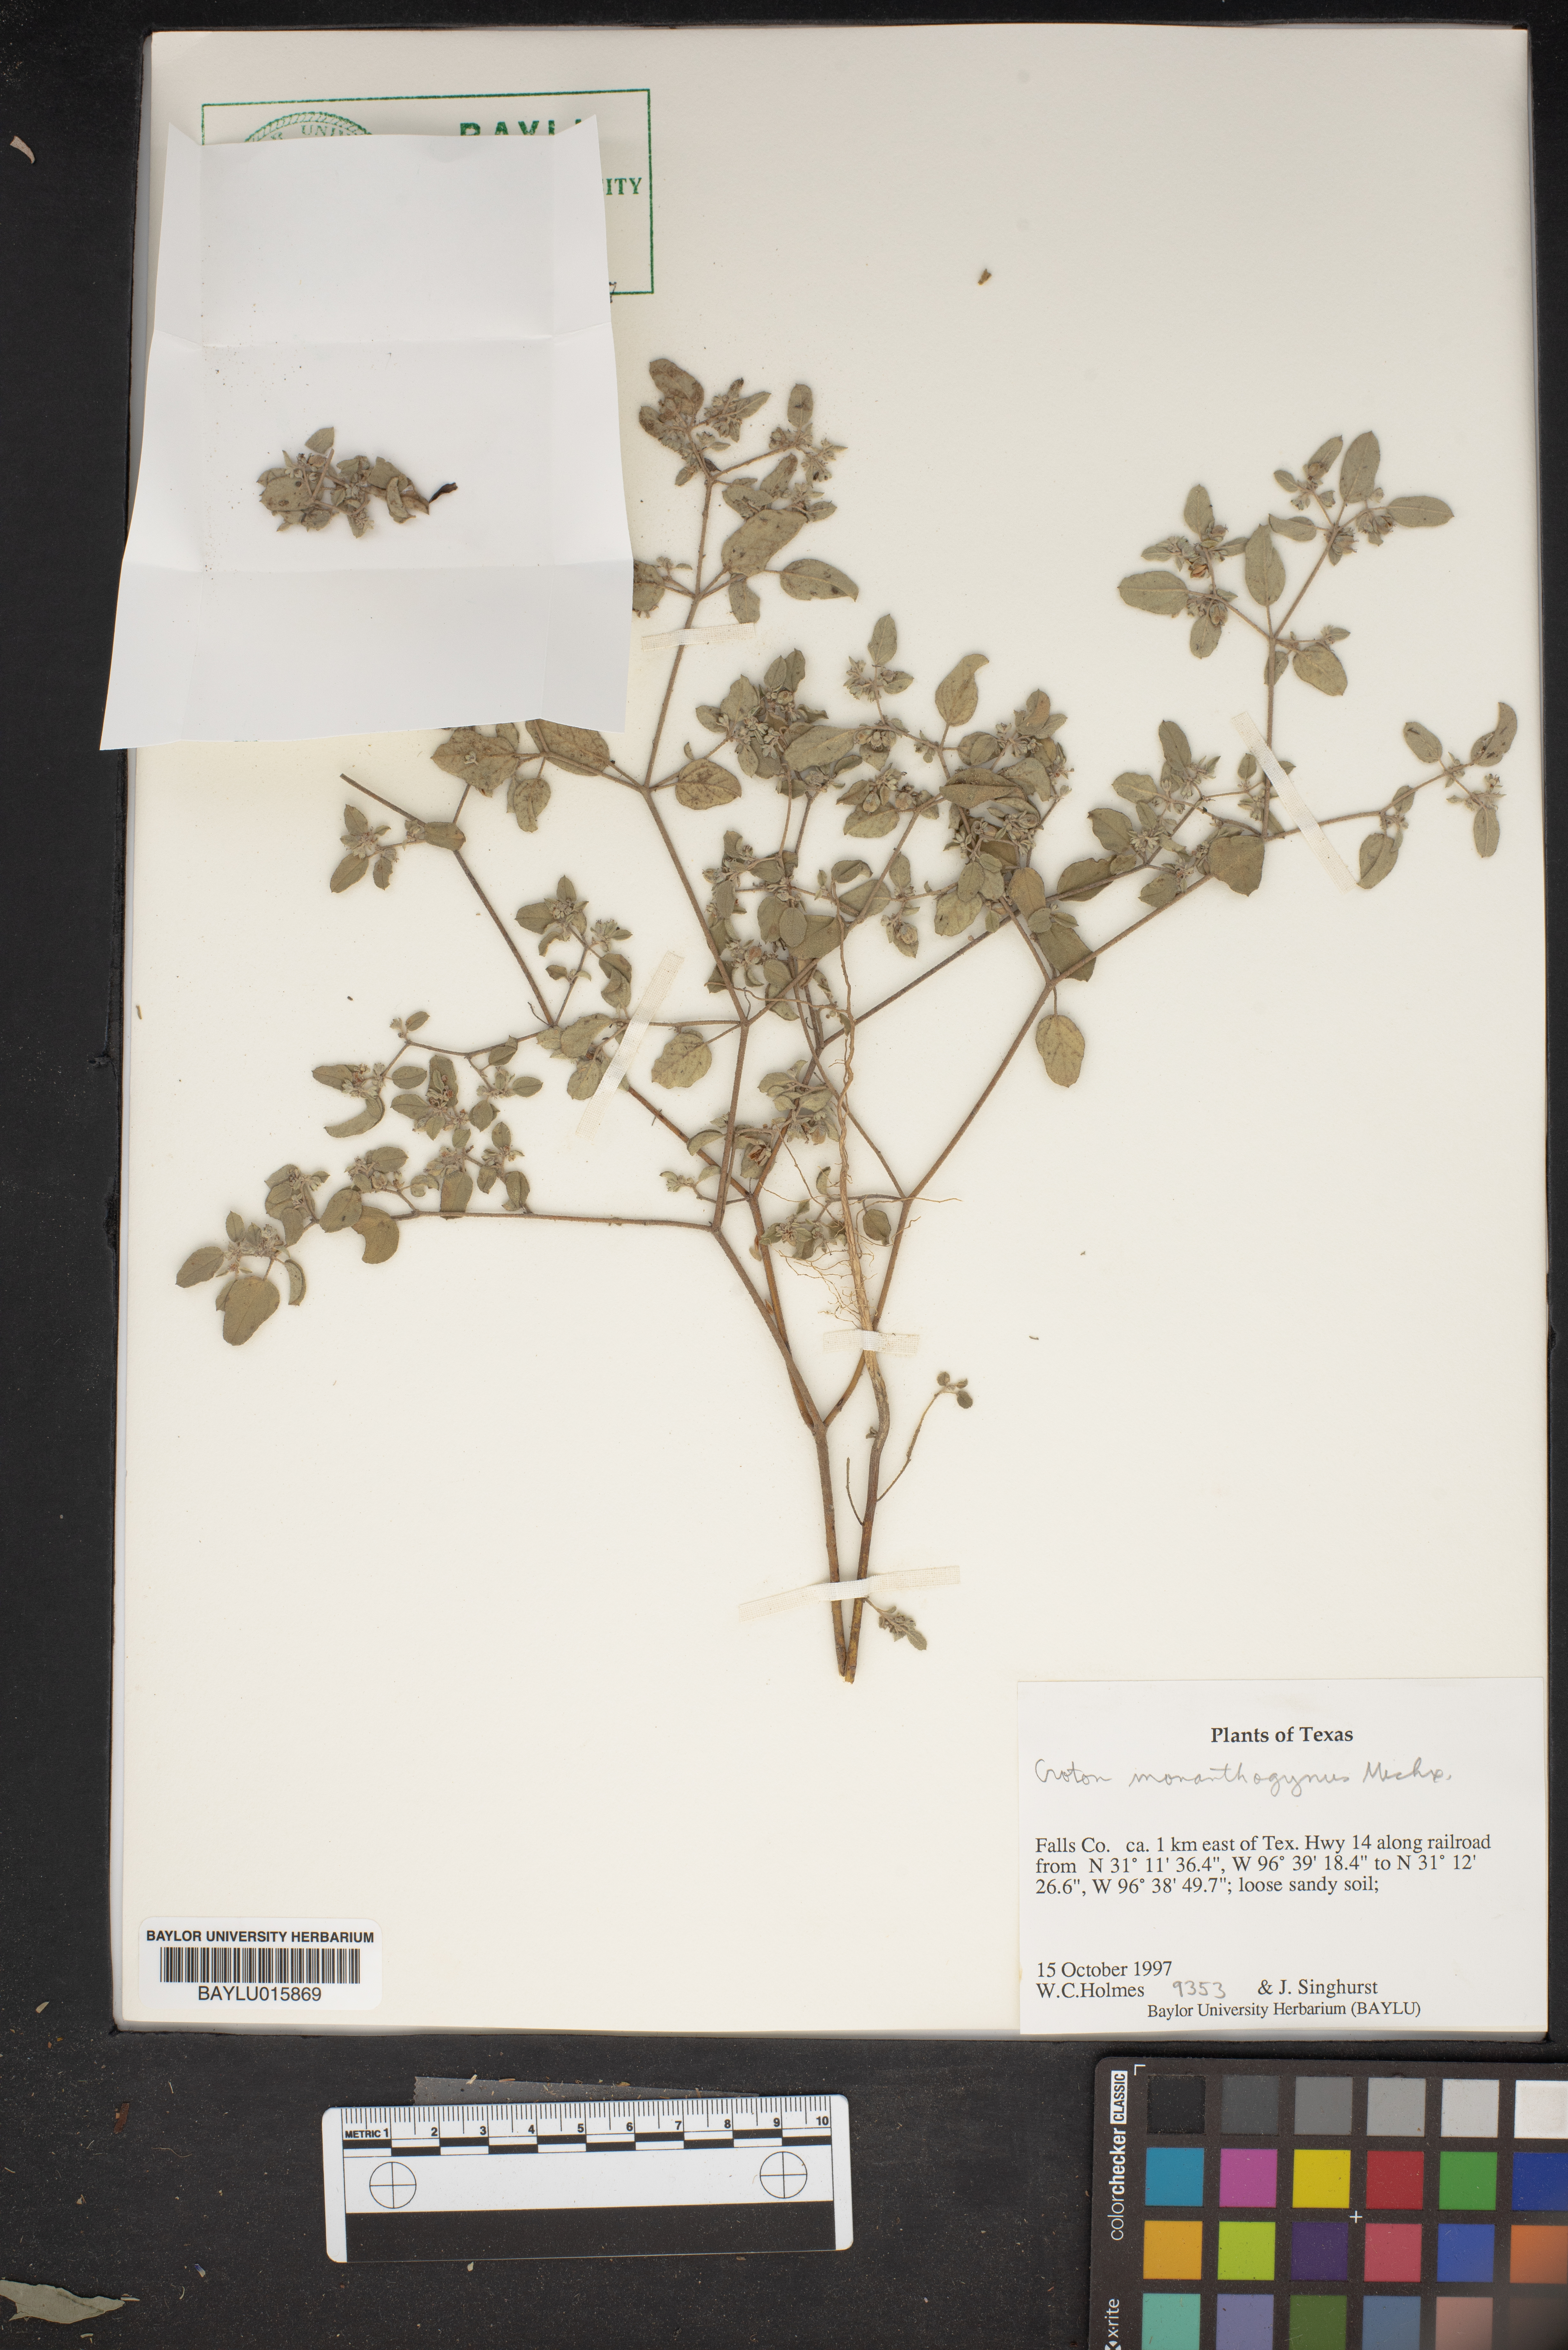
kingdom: Plantae
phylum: Tracheophyta
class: Magnoliopsida
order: Malpighiales
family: Euphorbiaceae
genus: Croton
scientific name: Croton monanthogynus
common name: One-seed croton
